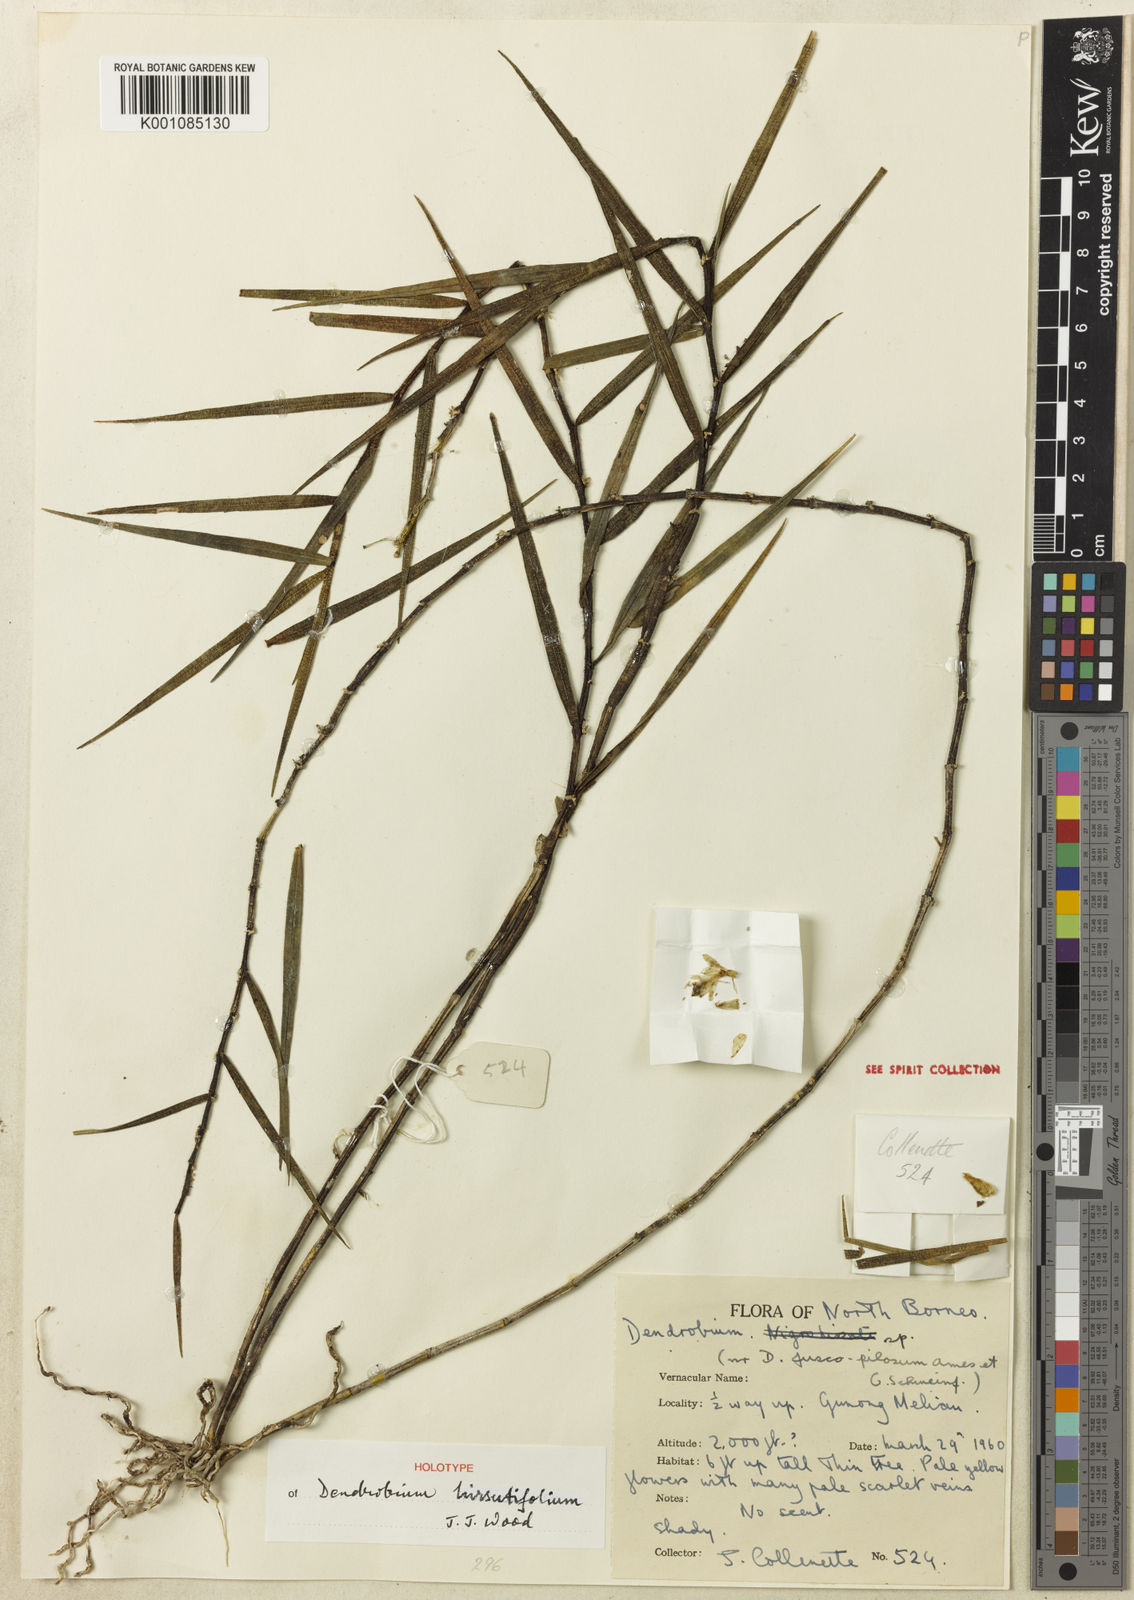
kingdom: Plantae
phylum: Tracheophyta
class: Liliopsida
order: Asparagales
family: Orchidaceae
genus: Dendrobium
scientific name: Dendrobium hirsutifolium
